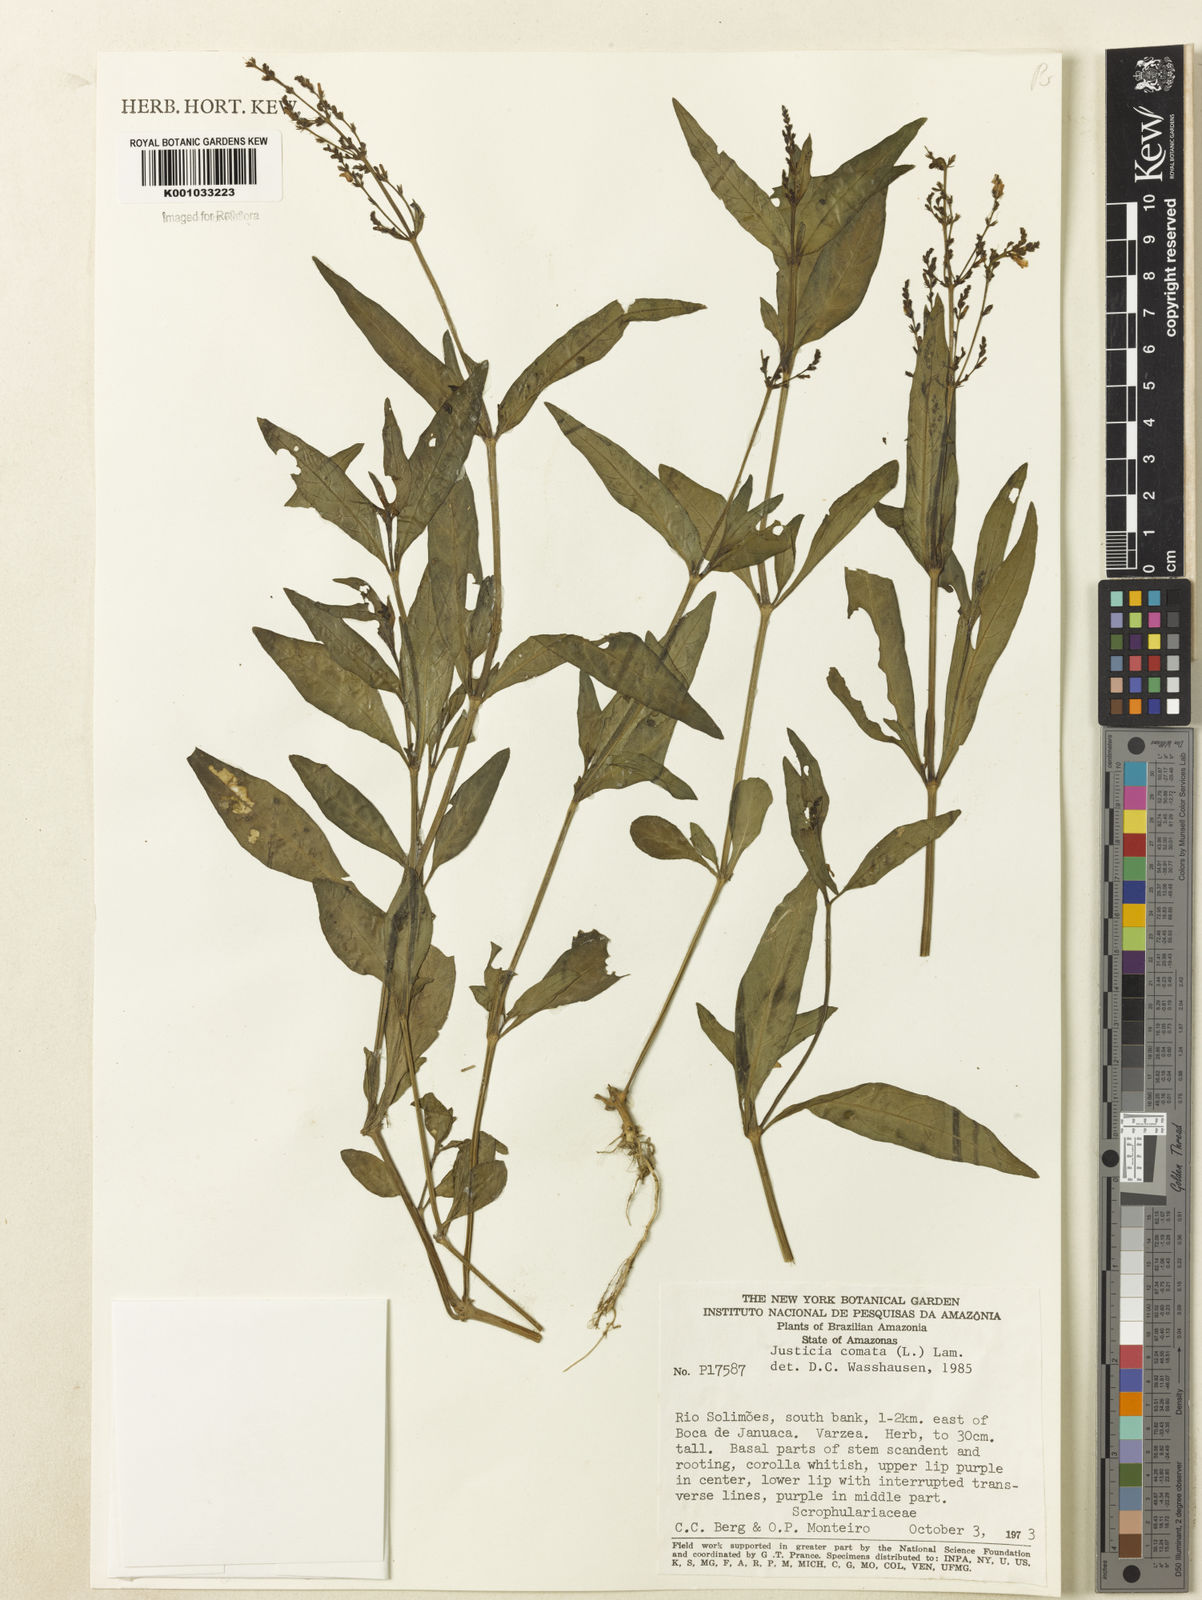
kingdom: Plantae
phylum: Tracheophyta
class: Magnoliopsida
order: Lamiales
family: Acanthaceae
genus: Dianthera
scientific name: Dianthera comata
